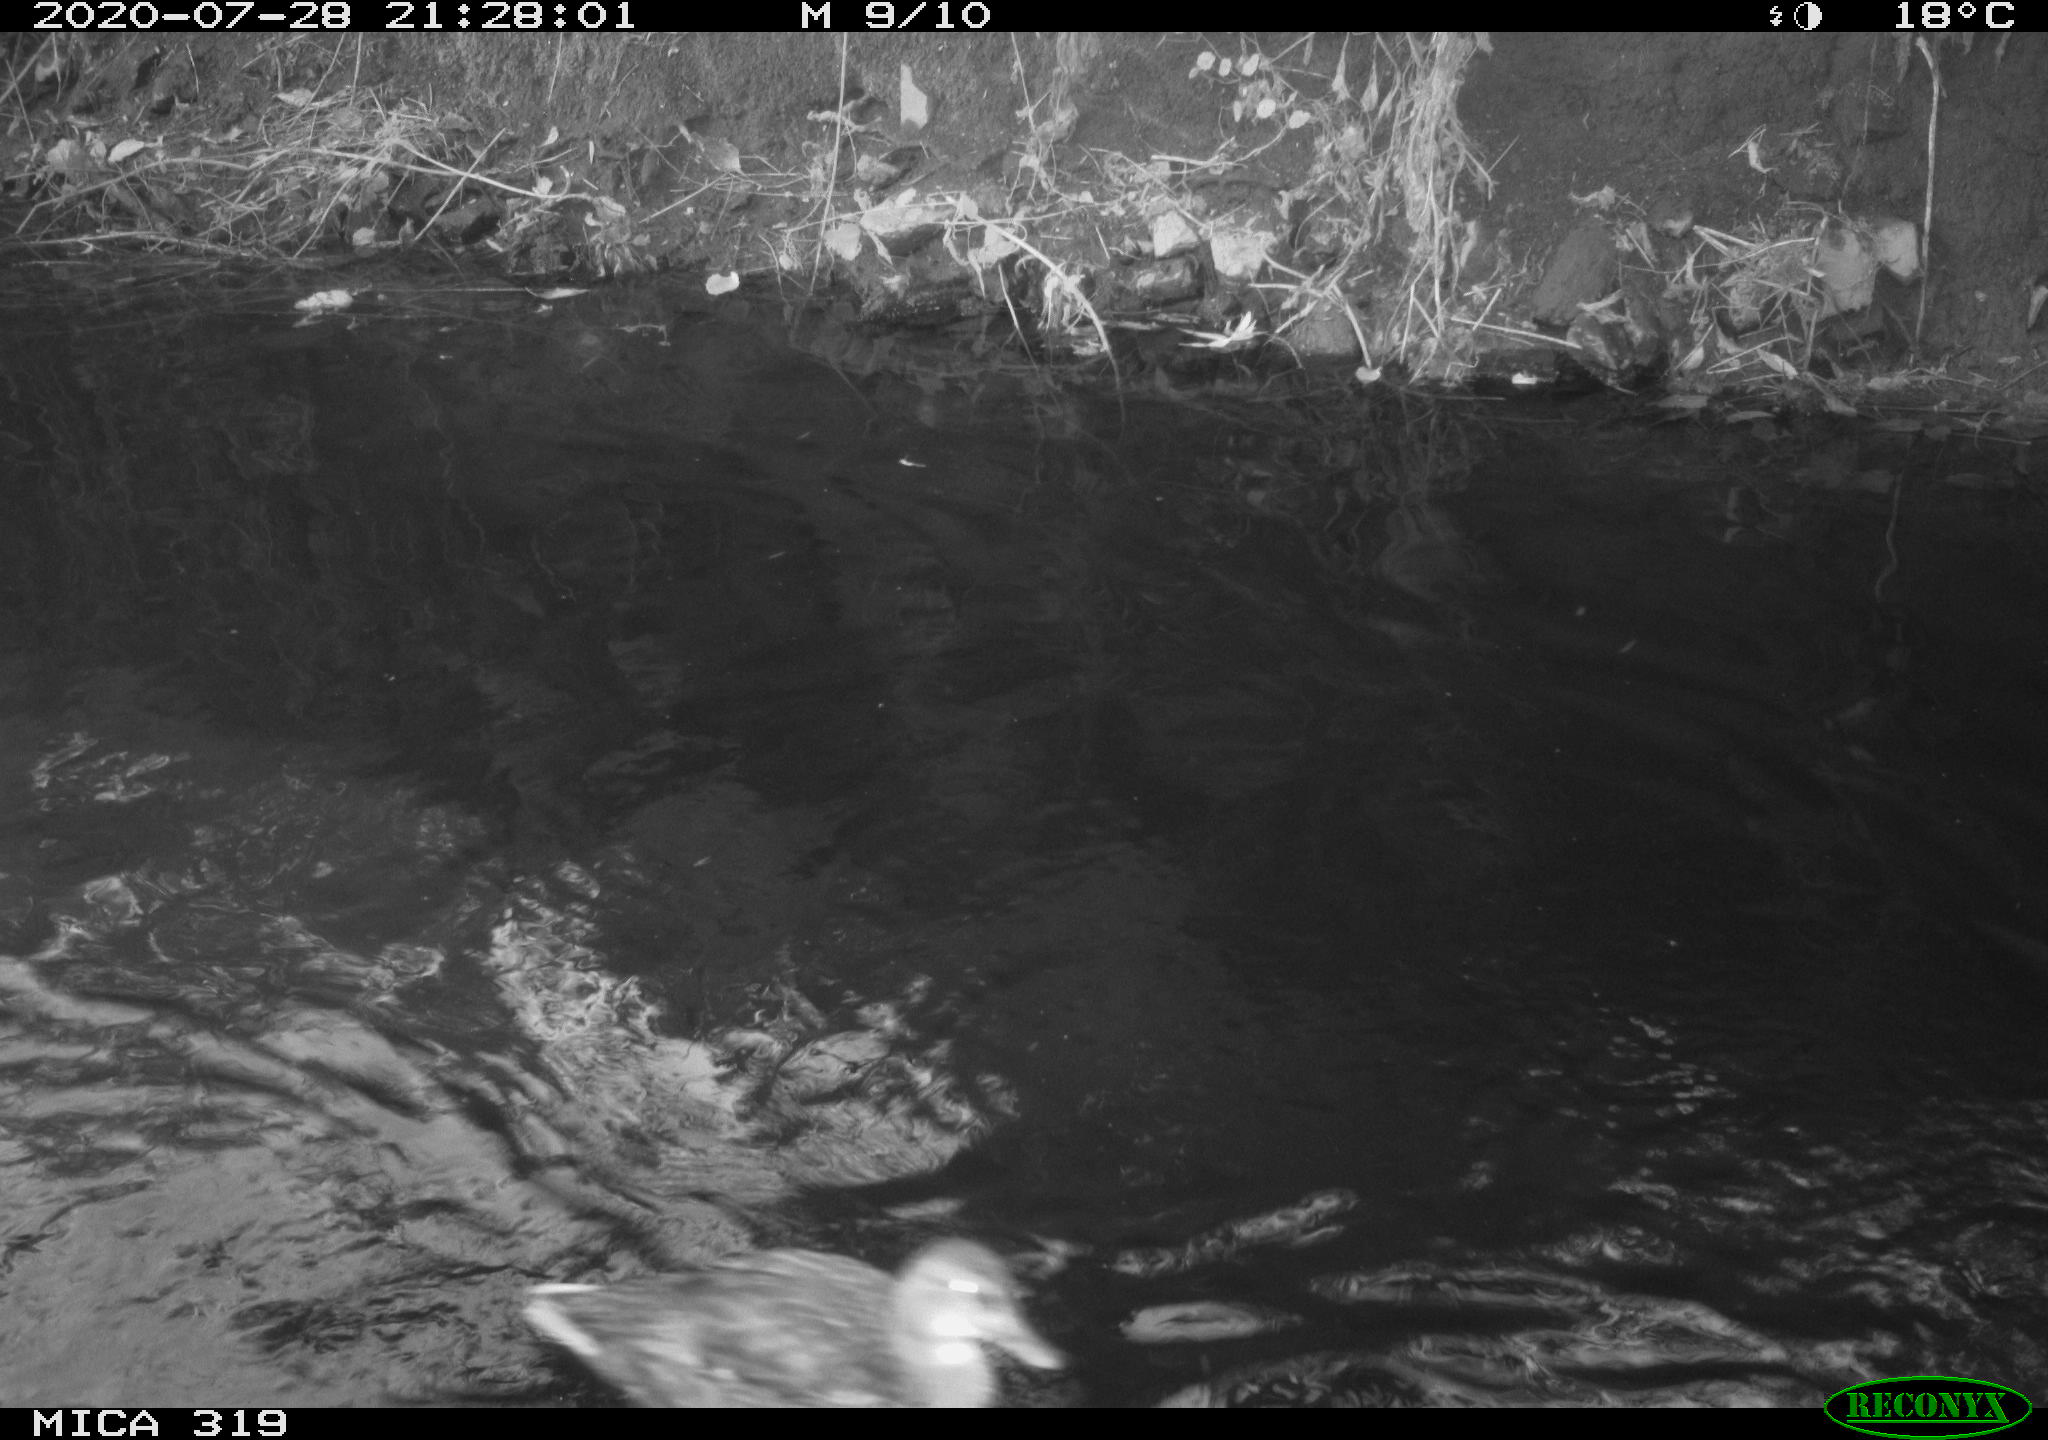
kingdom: Animalia
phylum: Chordata
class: Aves
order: Anseriformes
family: Anatidae
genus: Anas
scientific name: Anas platyrhynchos
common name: Mallard
